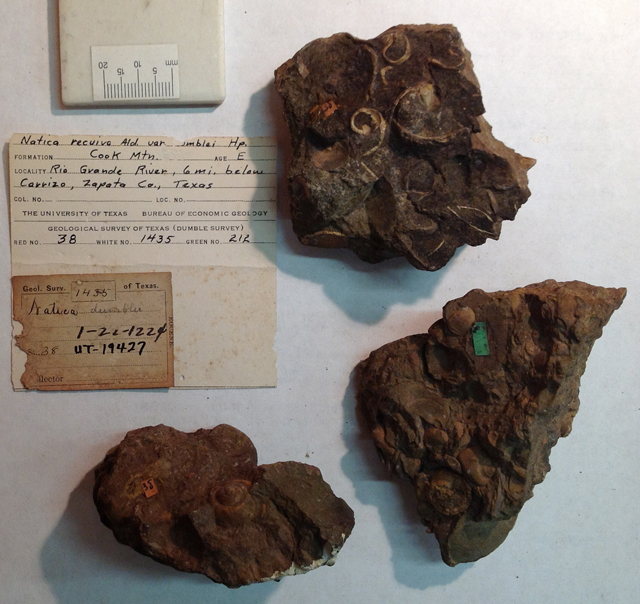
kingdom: Animalia
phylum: Mollusca
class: Gastropoda
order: Littorinimorpha
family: Naticidae
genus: Natica
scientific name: Natica
